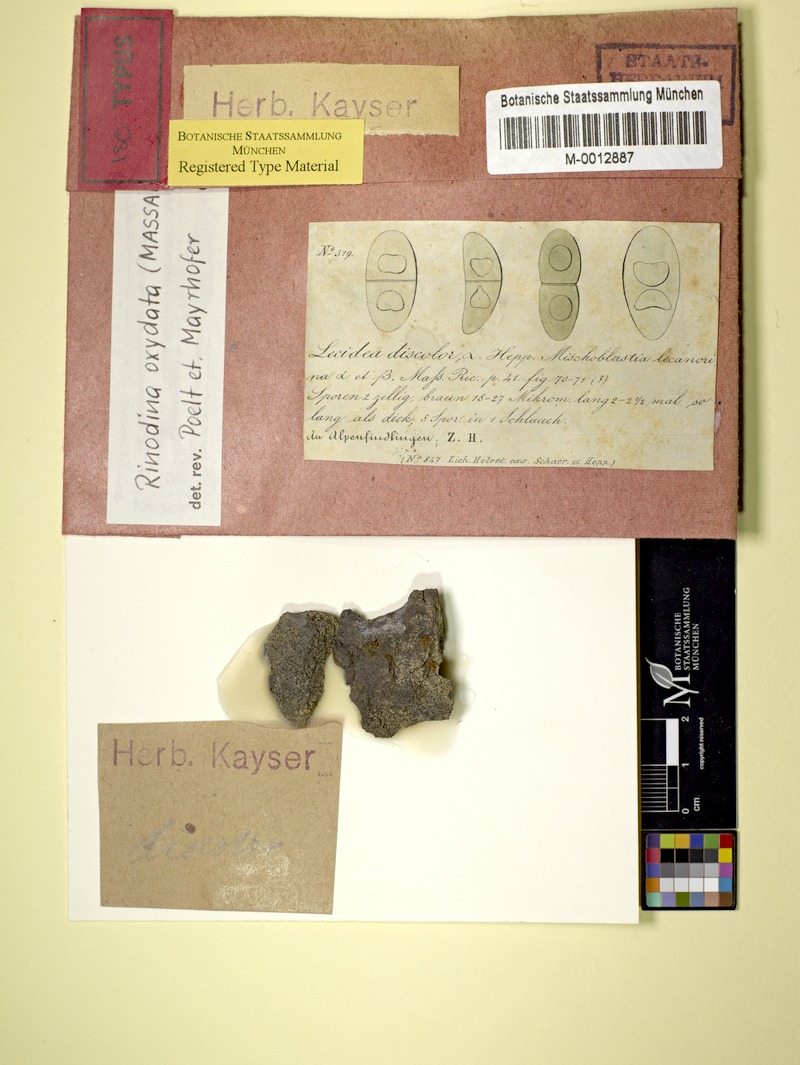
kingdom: Fungi
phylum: Ascomycota
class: Lecanoromycetes
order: Caliciales
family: Physciaceae
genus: Mischoblastia
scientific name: Mischoblastia oxydata
